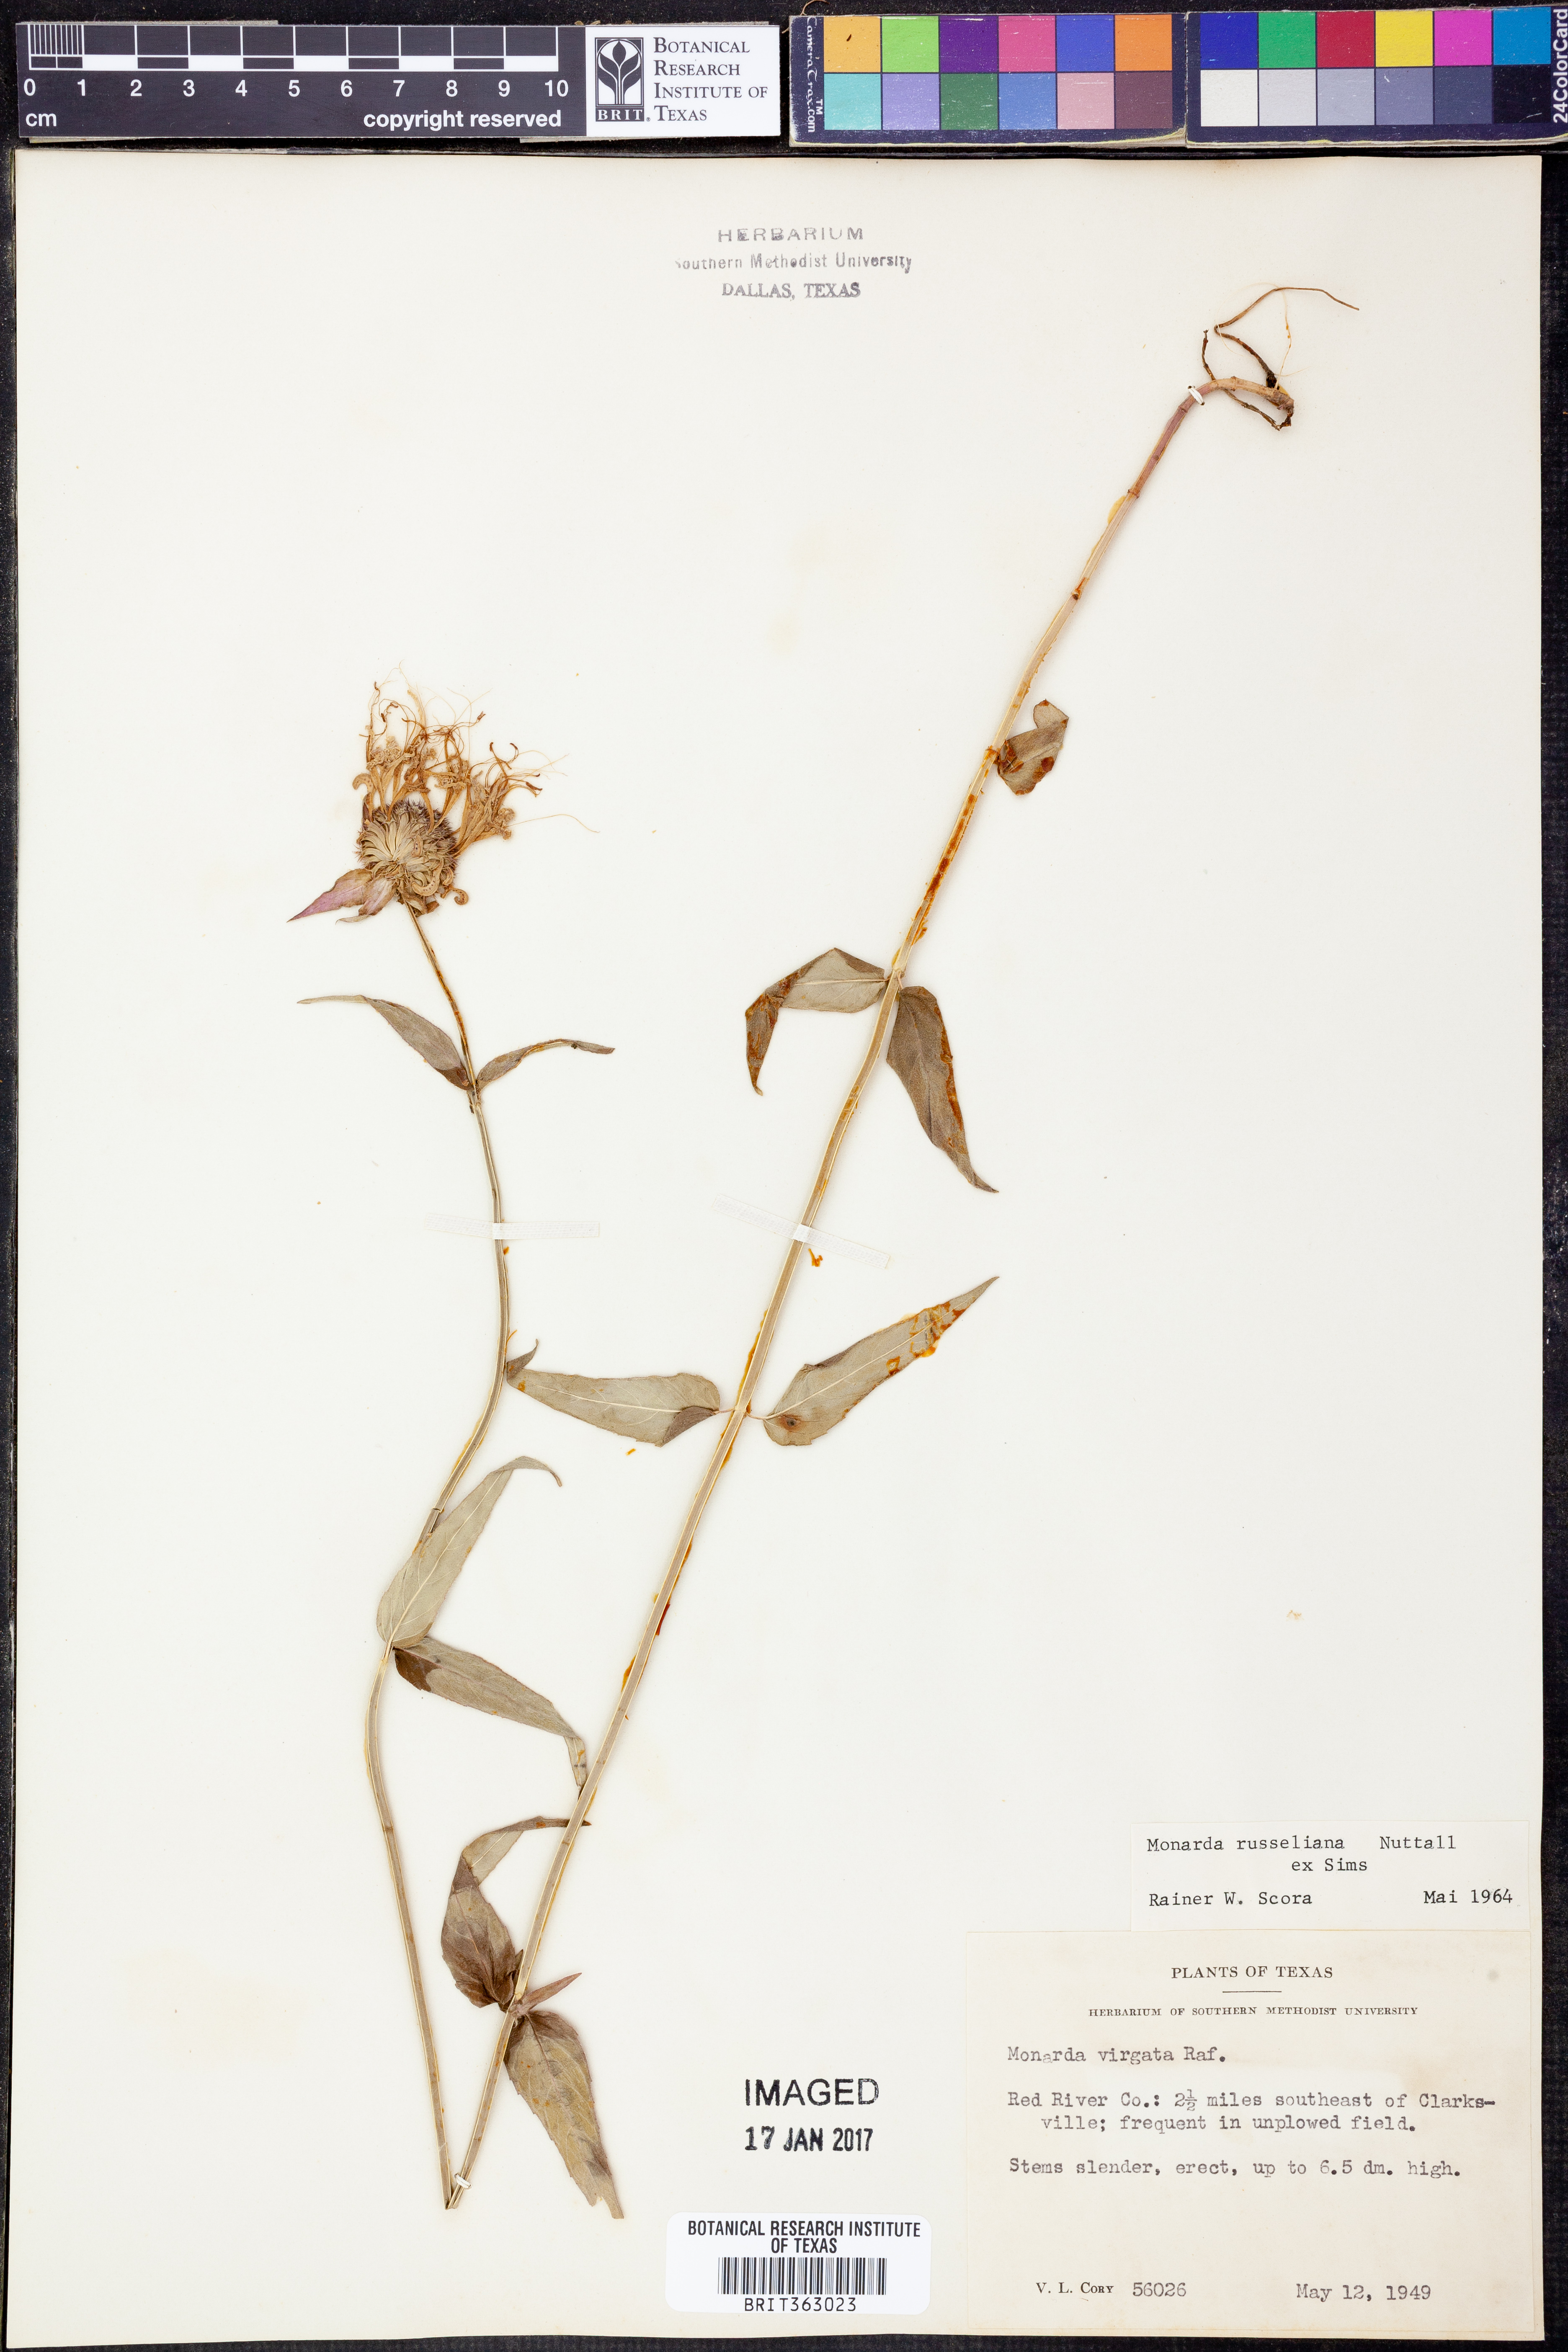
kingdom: Plantae
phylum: Tracheophyta
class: Magnoliopsida
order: Lamiales
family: Lamiaceae
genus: Monarda
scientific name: Monarda russeliana
